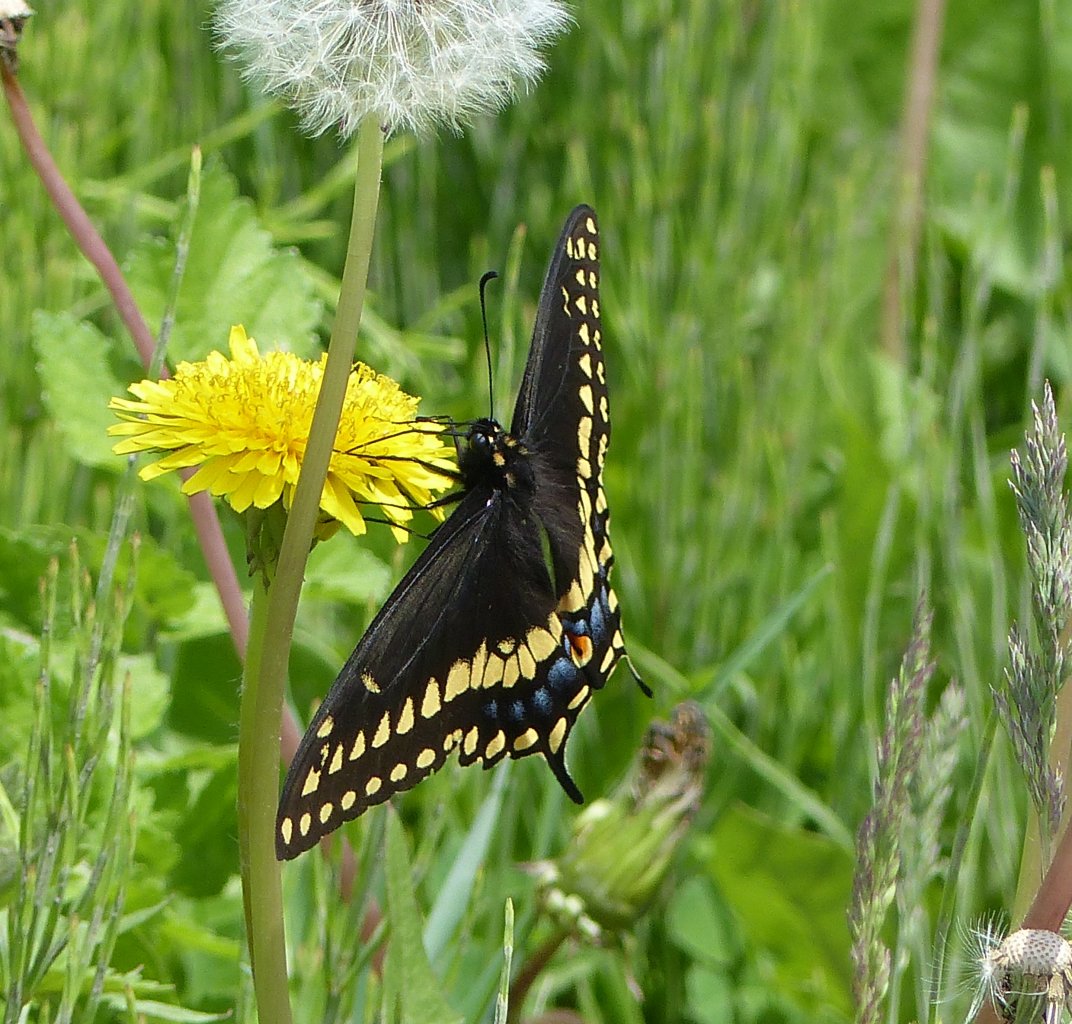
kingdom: Animalia
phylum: Arthropoda
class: Insecta
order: Lepidoptera
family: Papilionidae
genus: Papilio
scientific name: Papilio polyxenes
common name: Black Swallowtail
